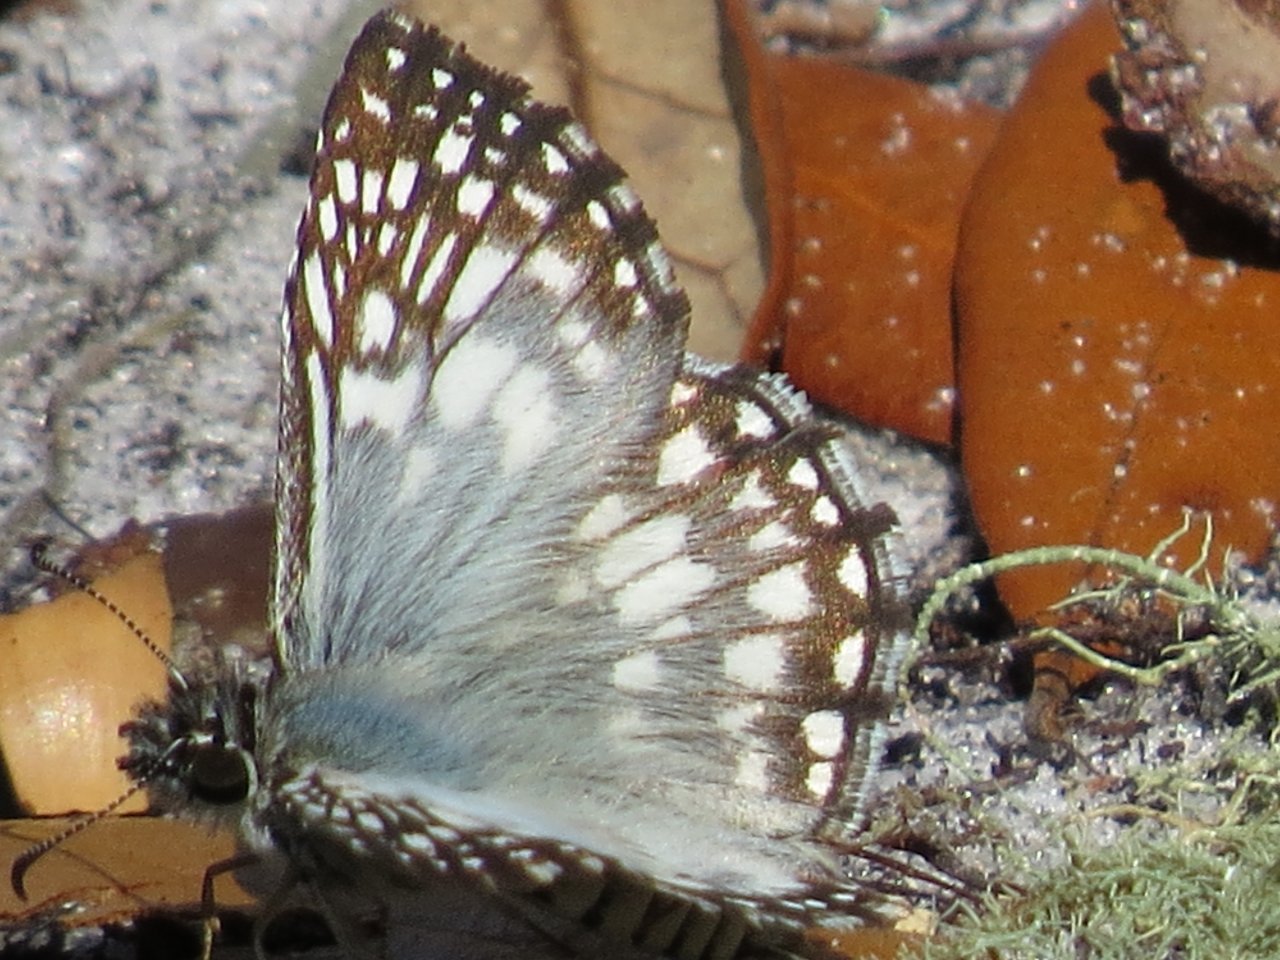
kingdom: Animalia
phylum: Arthropoda
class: Insecta
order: Lepidoptera
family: Hesperiidae
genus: Pyrgus
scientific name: Pyrgus oileus
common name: Tropical Checkered-Skipper
